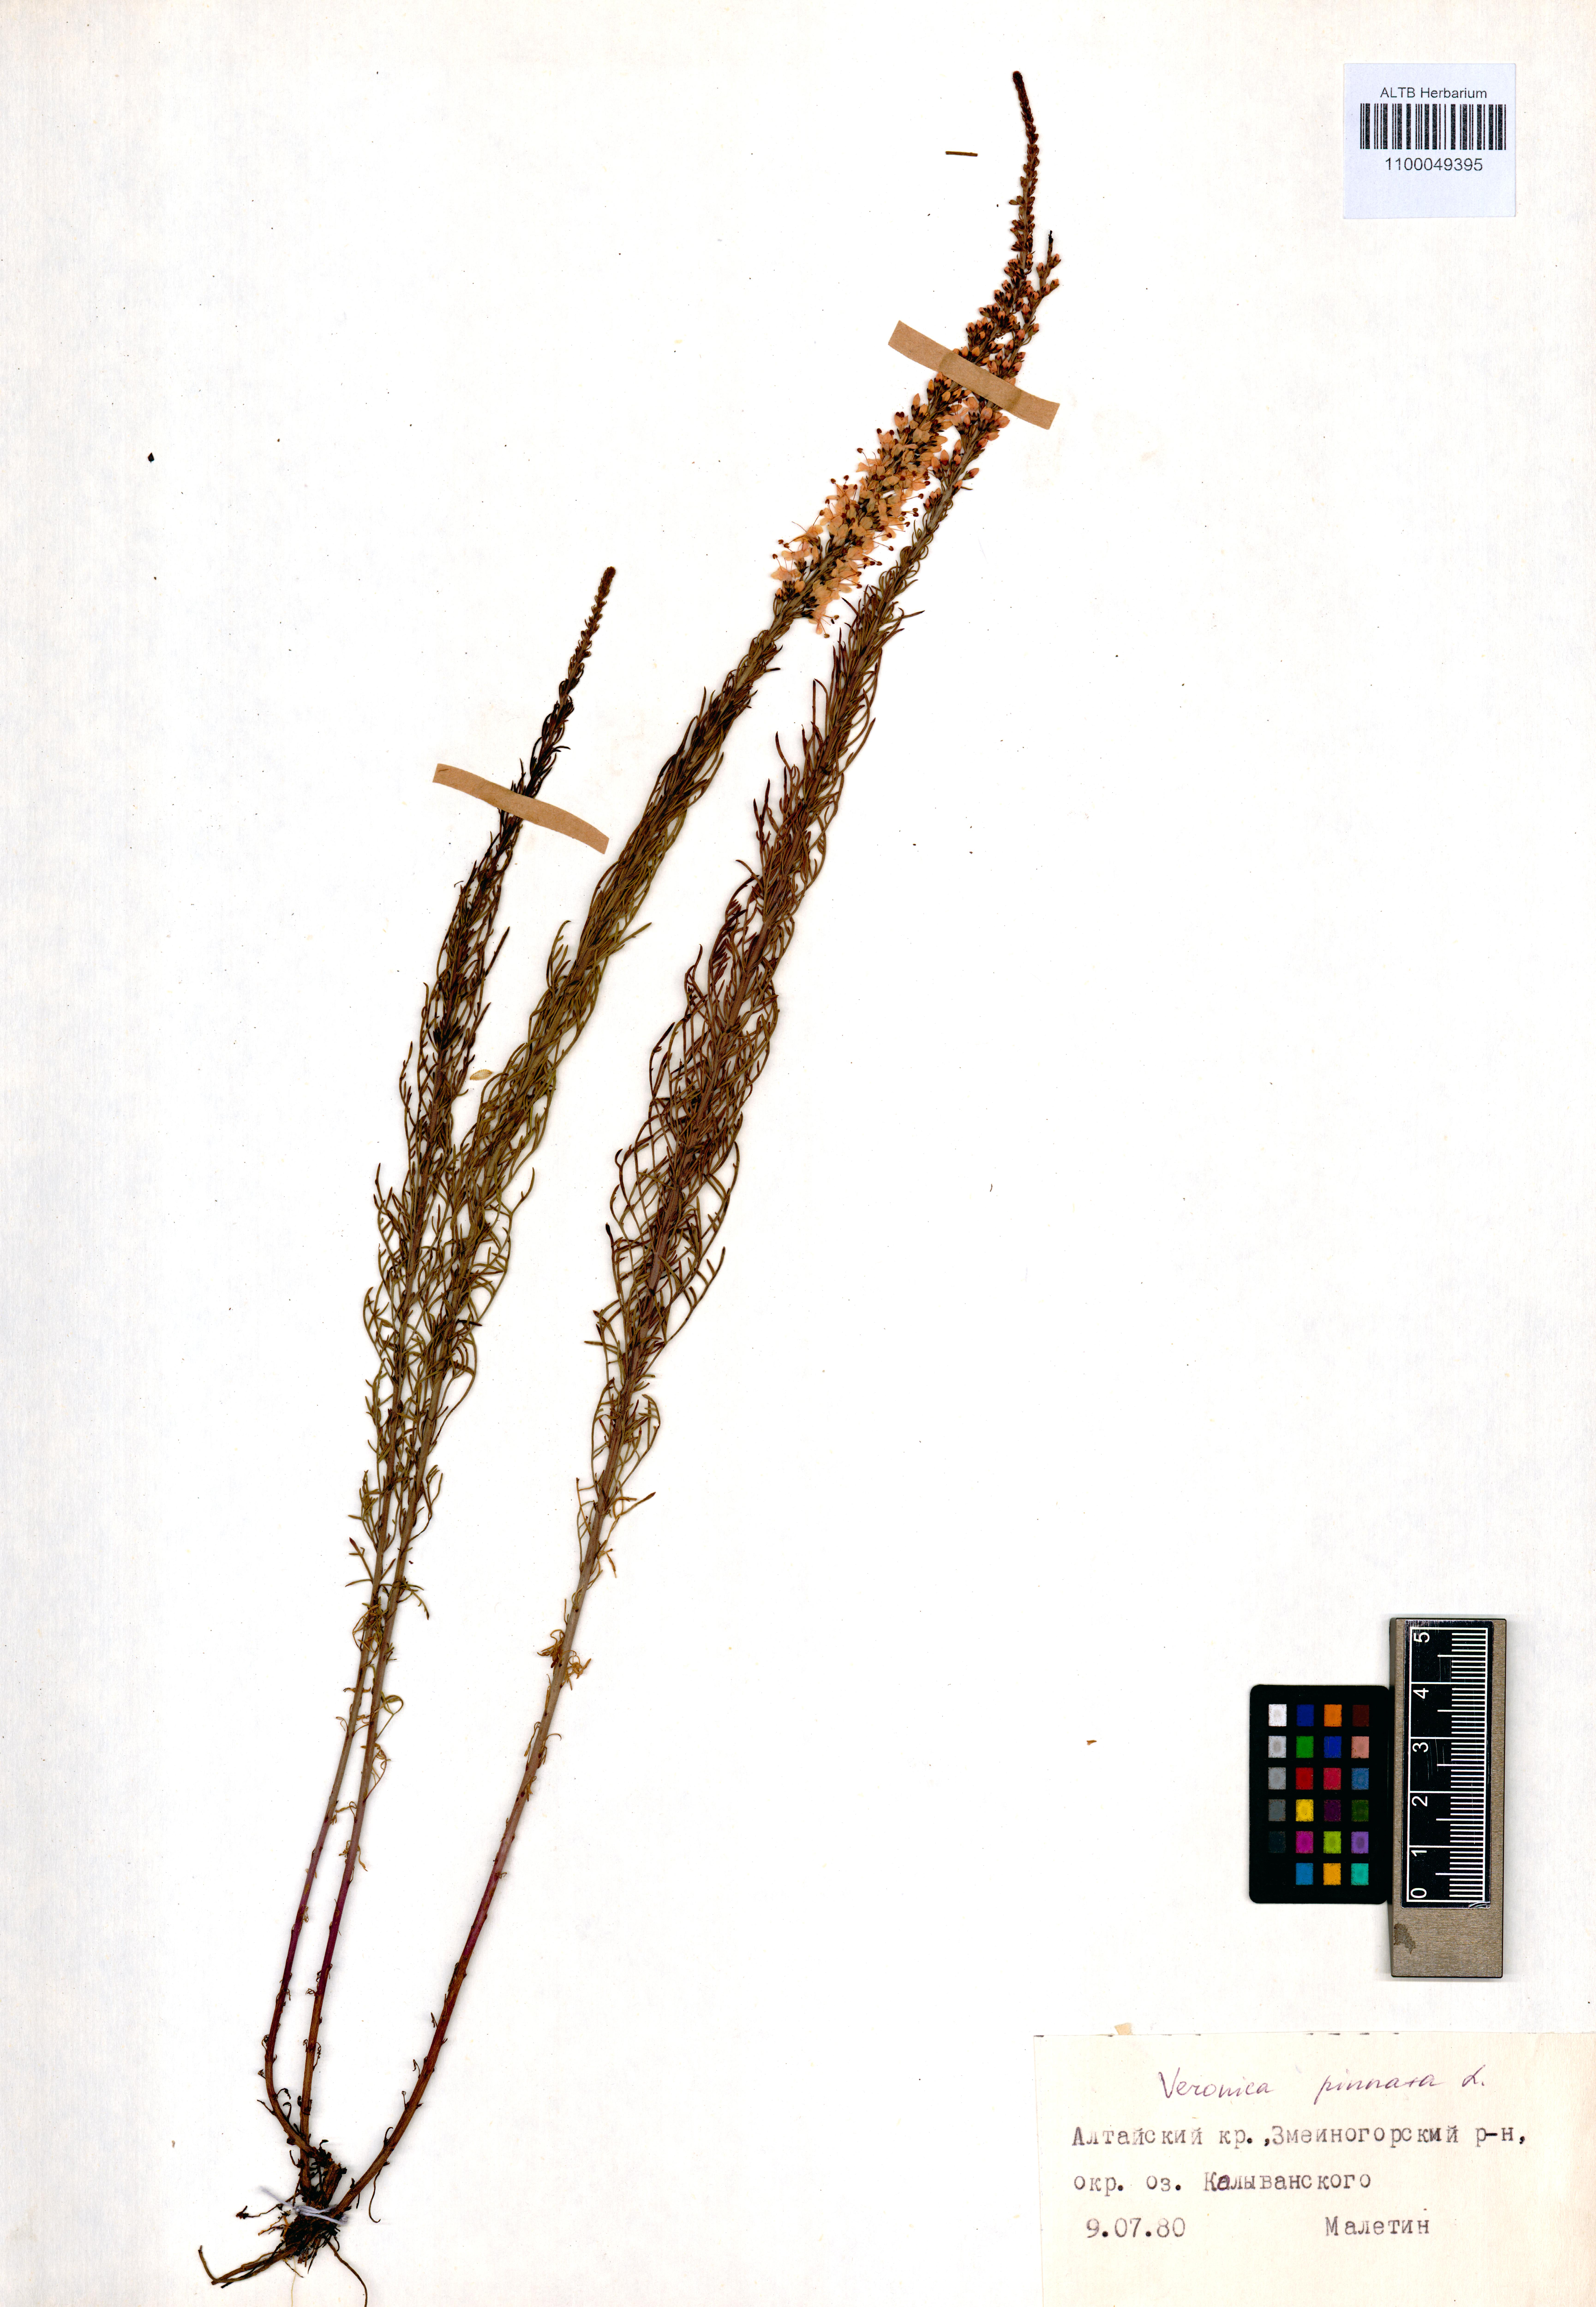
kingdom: Plantae
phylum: Tracheophyta
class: Magnoliopsida
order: Lamiales
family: Plantaginaceae
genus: Veronica
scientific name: Veronica pinnata
